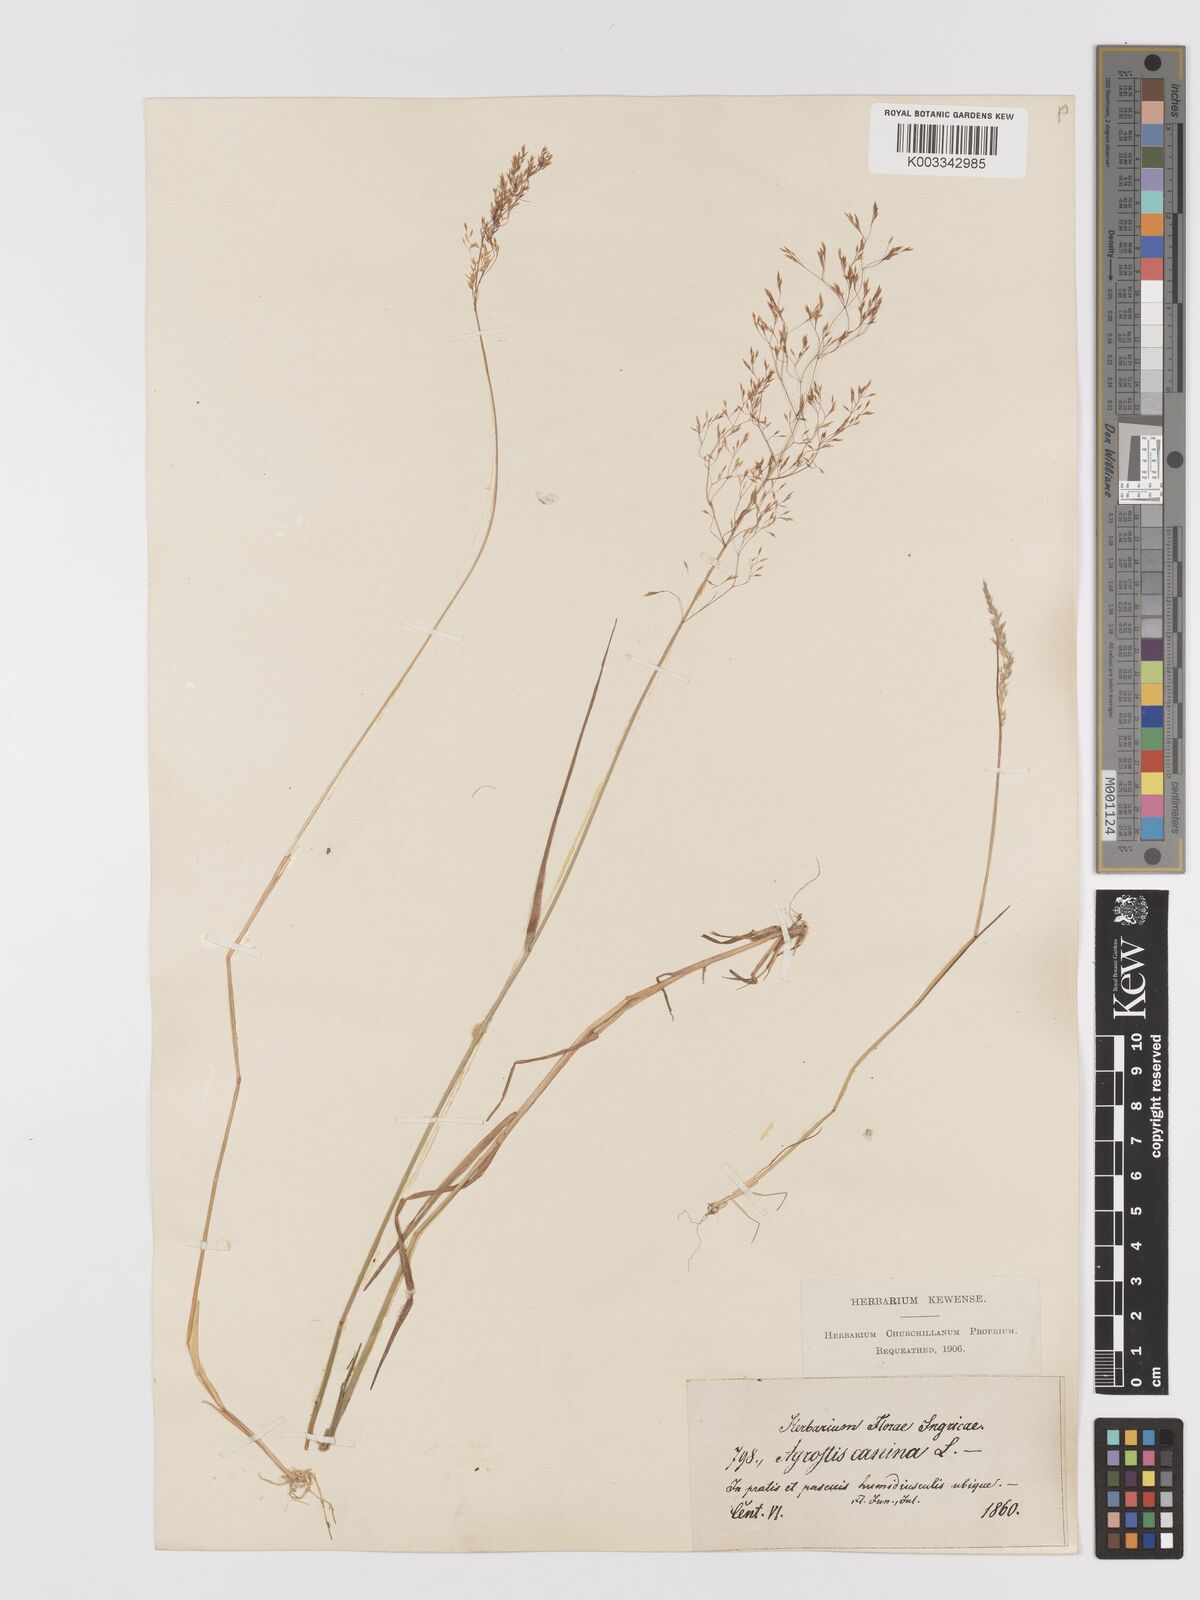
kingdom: Plantae
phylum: Tracheophyta
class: Liliopsida
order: Poales
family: Poaceae
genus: Agrostis
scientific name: Agrostis canina
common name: Velvet bent
